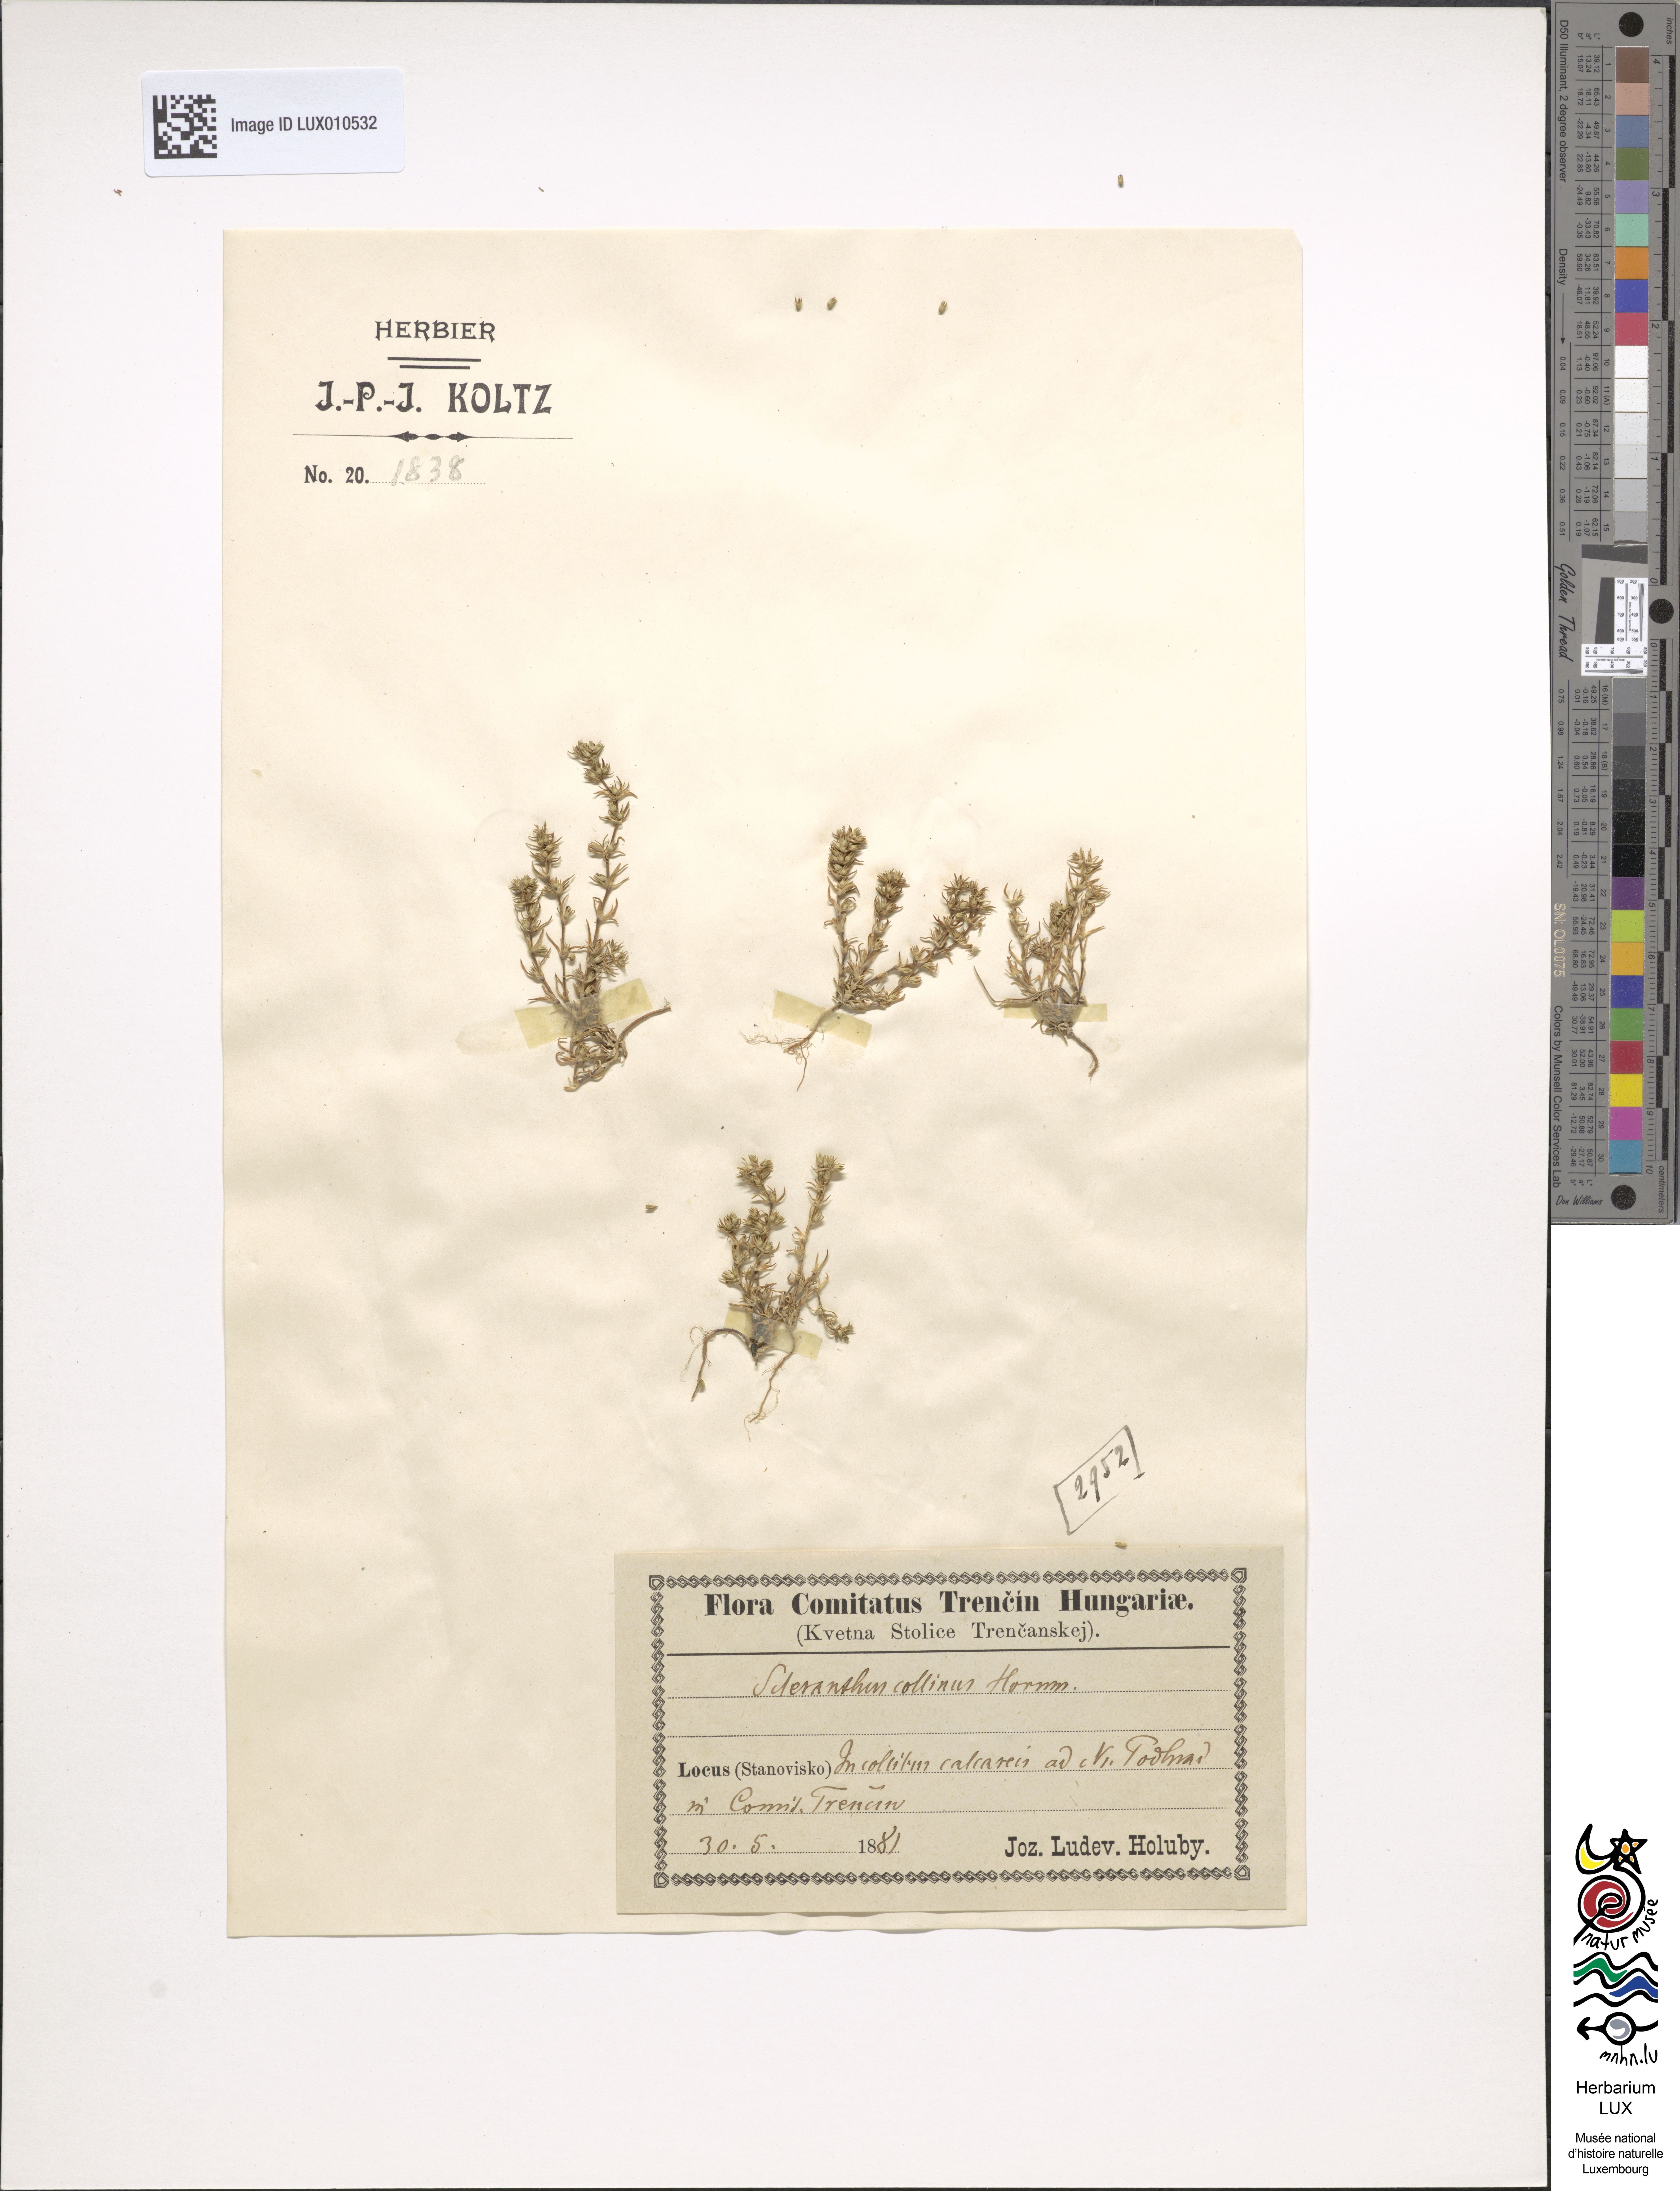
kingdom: Plantae
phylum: Tracheophyta
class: Magnoliopsida
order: Caryophyllales
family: Caryophyllaceae
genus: Scleranthus
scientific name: Scleranthus verticillatus
